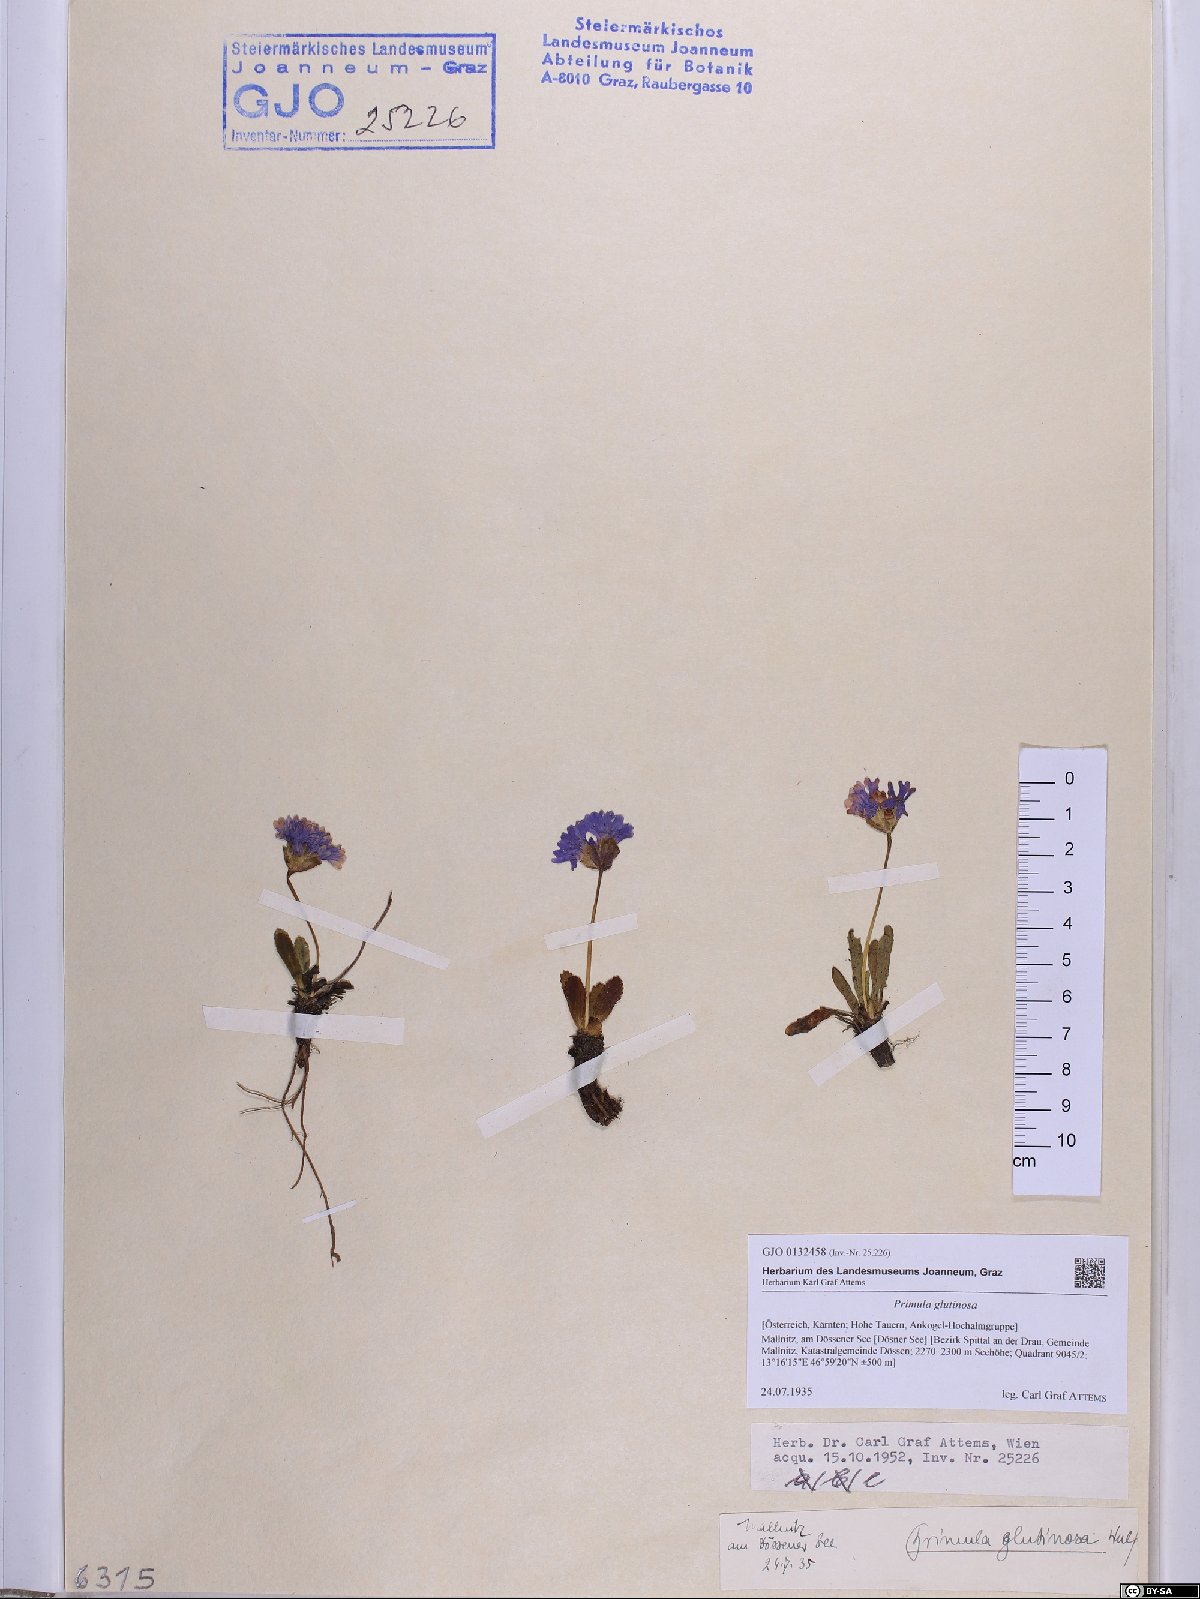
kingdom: Plantae
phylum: Tracheophyta
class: Magnoliopsida
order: Ericales
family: Primulaceae
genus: Primula
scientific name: Primula glutinosa
